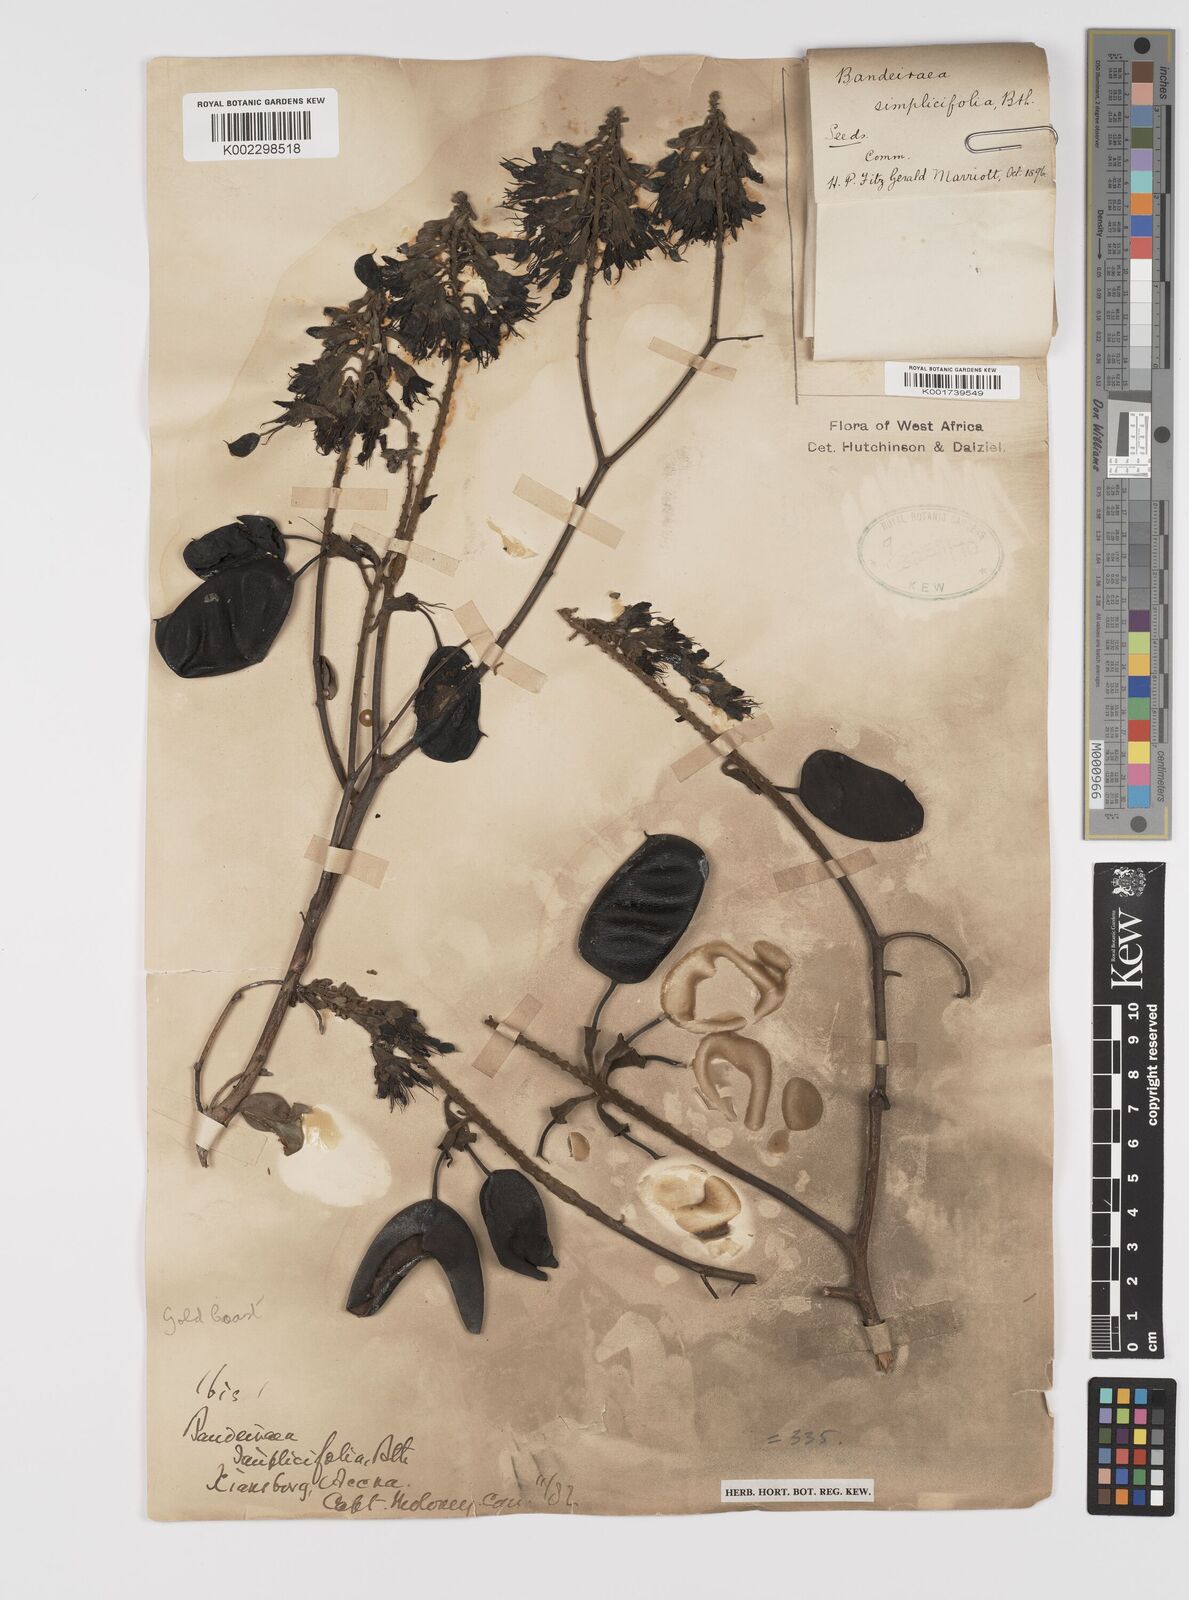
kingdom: Plantae
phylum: Tracheophyta
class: Magnoliopsida
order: Fabales
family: Fabaceae
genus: Griffonia
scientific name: Griffonia simplicifolia
